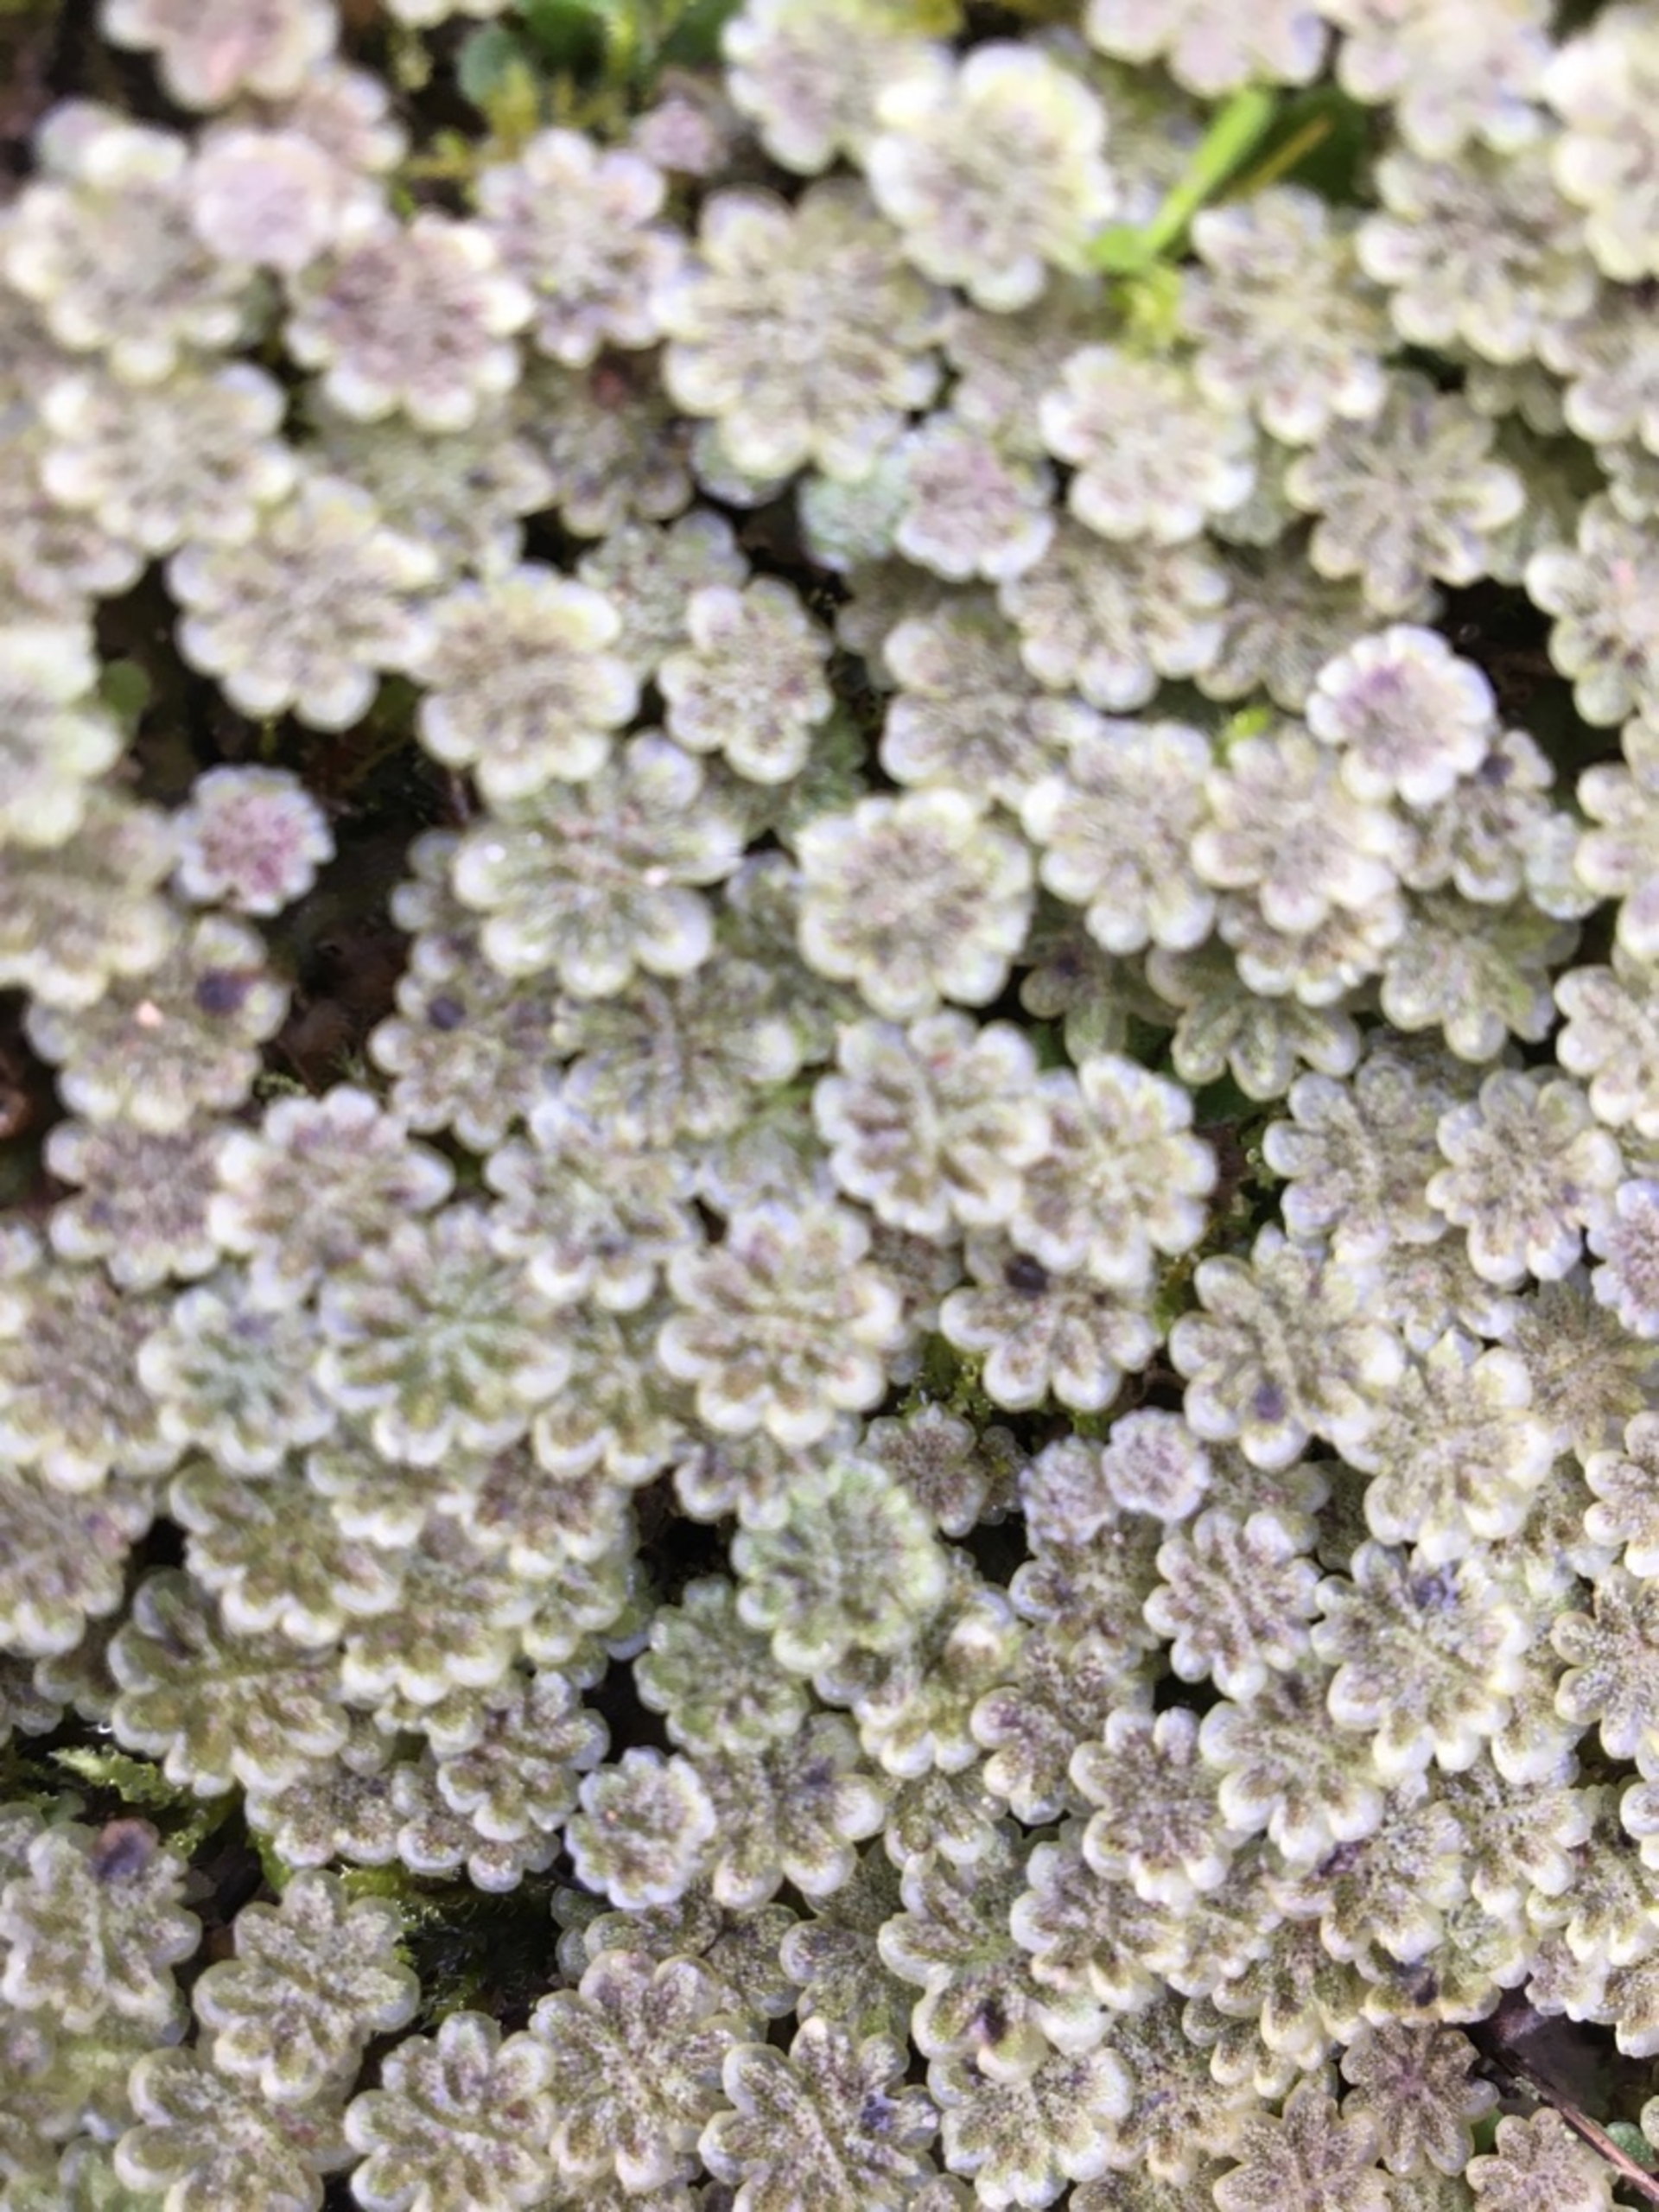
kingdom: Plantae
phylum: Marchantiophyta
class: Marchantiopsida
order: Marchantiales
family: Marchantiaceae
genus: Marchantia
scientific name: Marchantia polymorpha
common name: Almindelig lungemos (underart)
